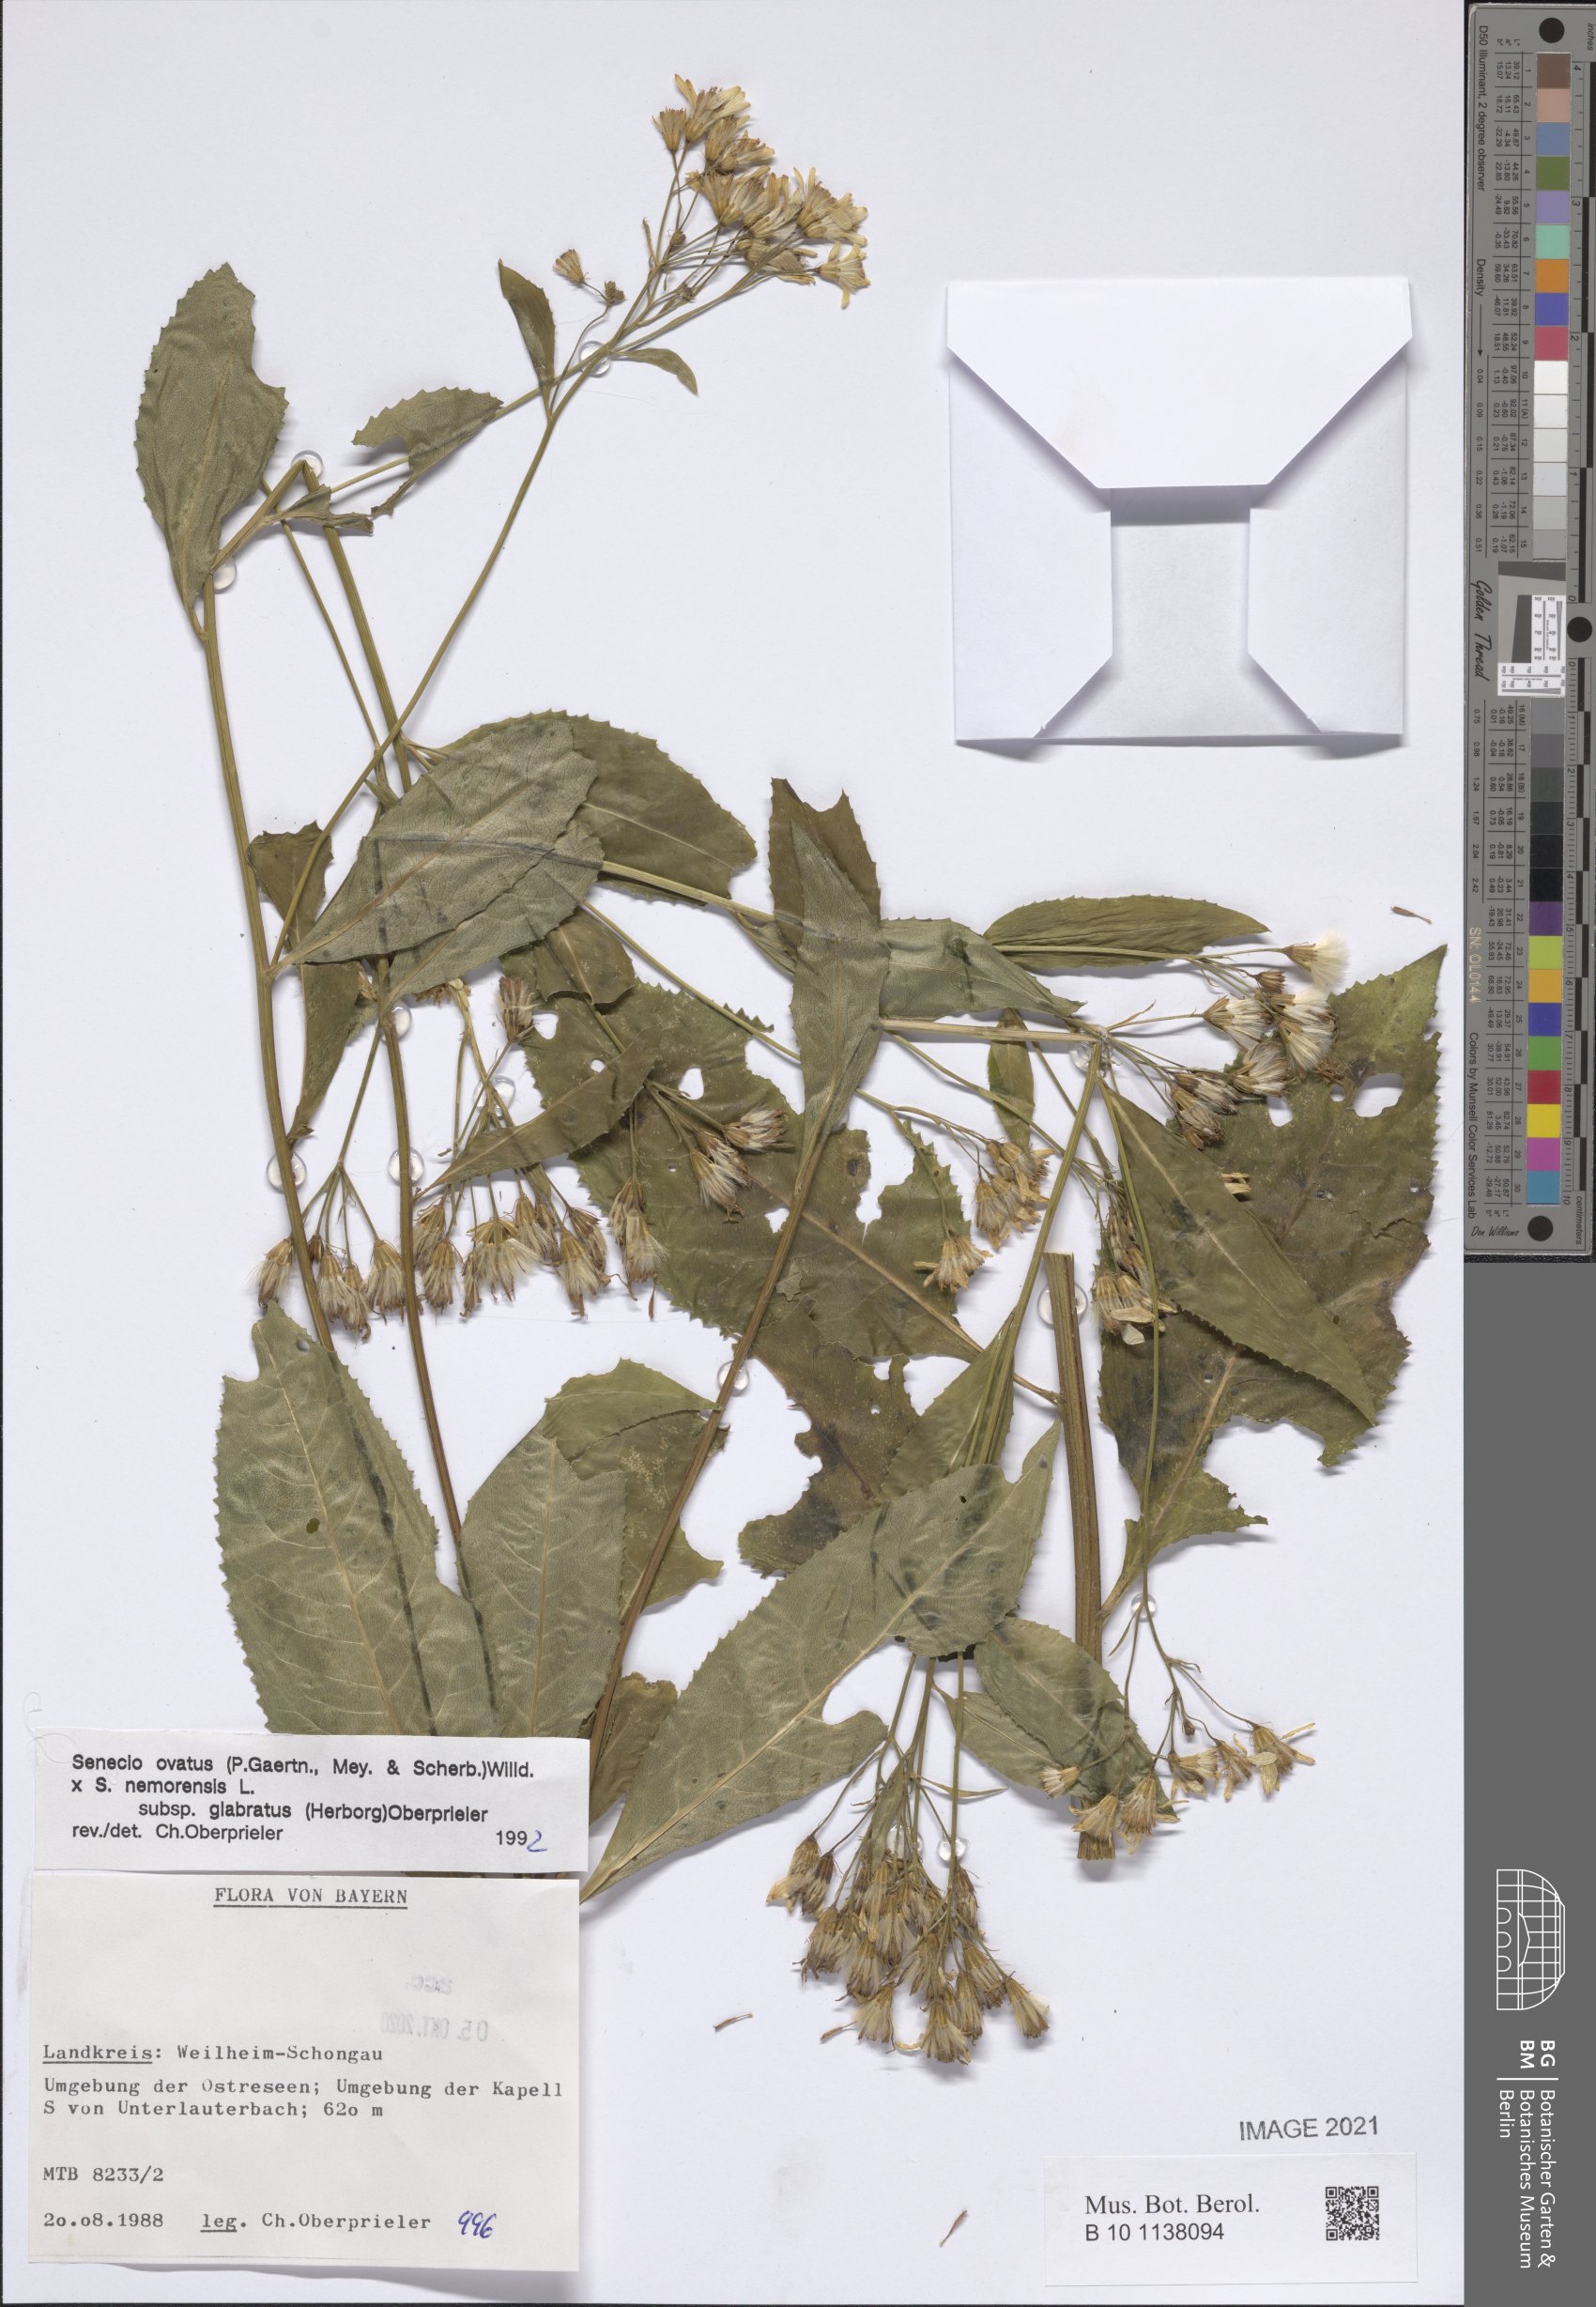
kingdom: Plantae
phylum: Tracheophyta
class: Magnoliopsida
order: Asterales
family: Asteraceae
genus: Senecio
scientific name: Senecio ovatus
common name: Wood ragwort
